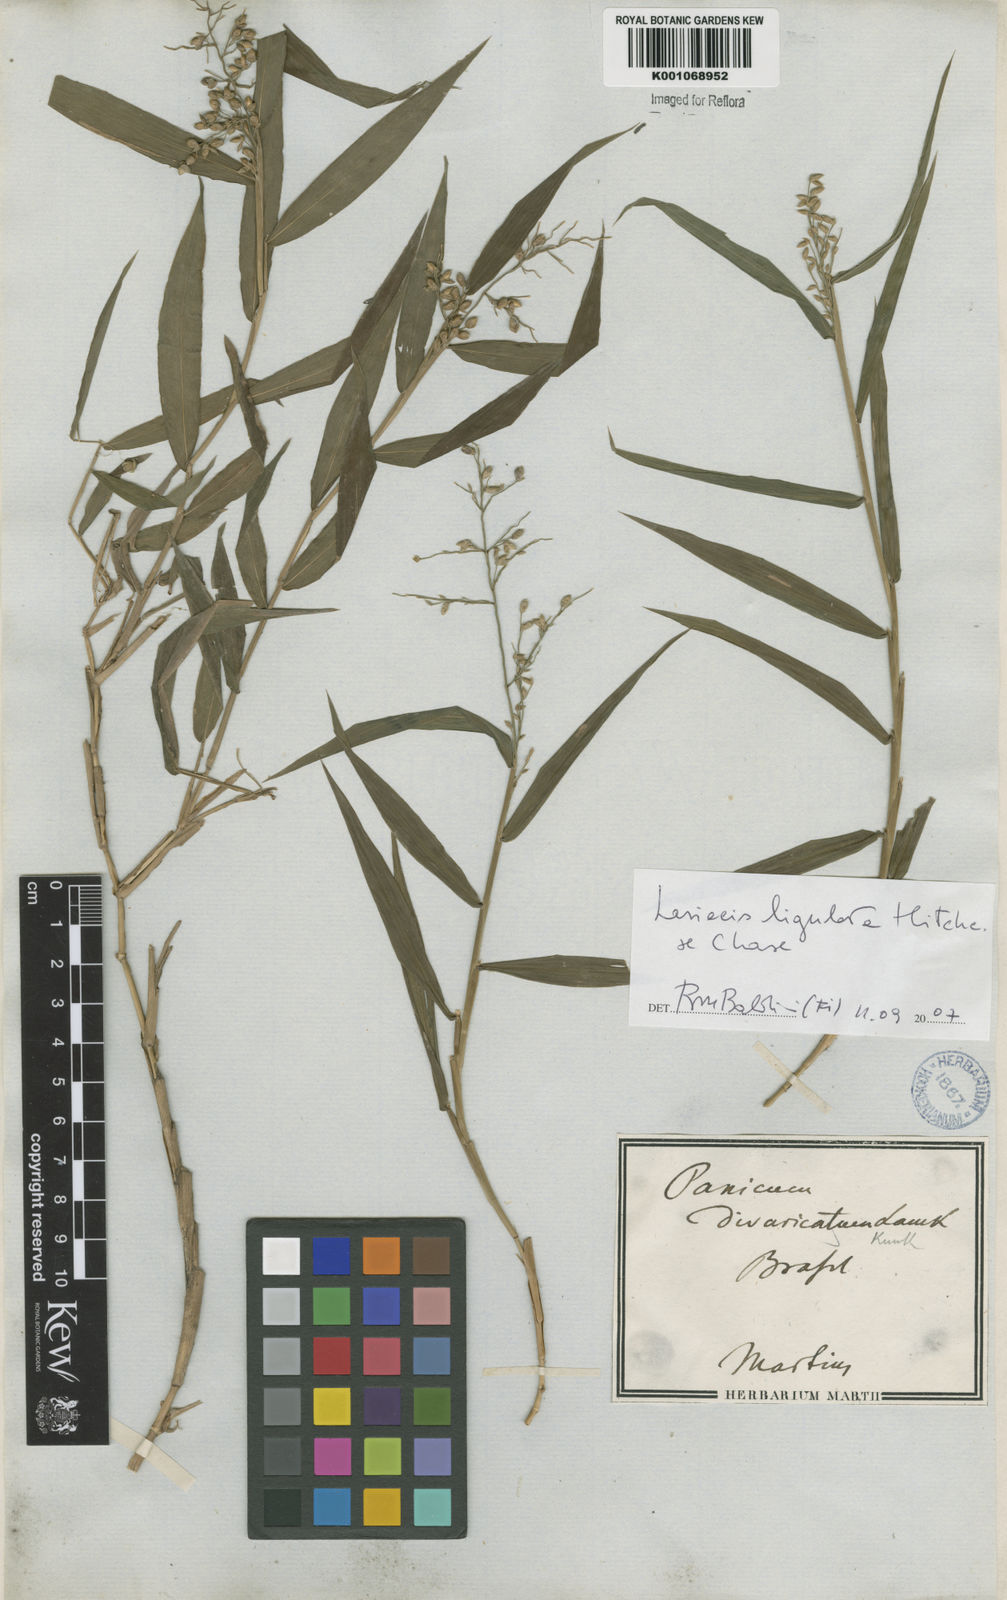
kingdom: Plantae
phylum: Tracheophyta
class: Liliopsida
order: Poales
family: Poaceae
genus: Lasiacis
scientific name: Lasiacis ligulata
